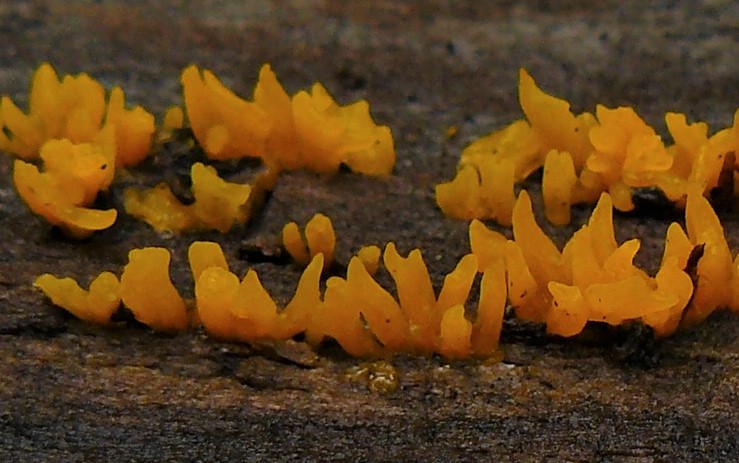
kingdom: Fungi
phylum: Basidiomycota
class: Dacrymycetes
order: Dacrymycetales
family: Dacrymycetaceae
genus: Calocera
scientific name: Calocera cornea
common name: liden guldgaffel
